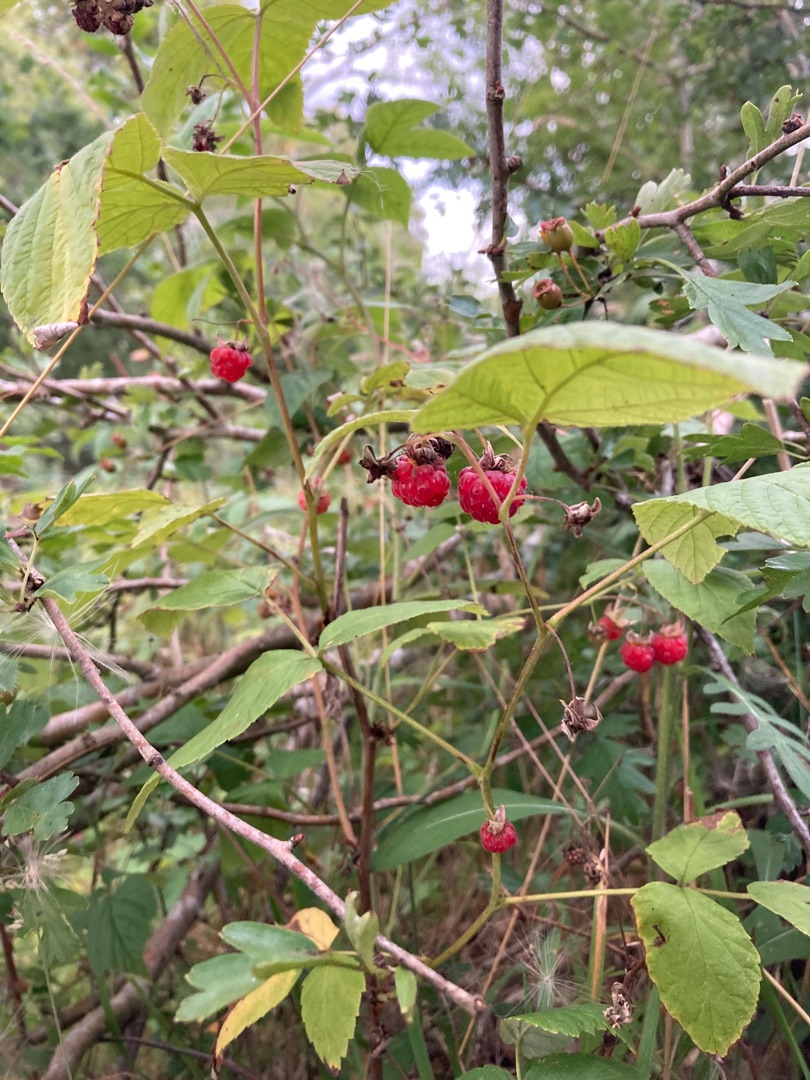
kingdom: Plantae
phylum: Tracheophyta
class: Magnoliopsida
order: Rosales
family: Rosaceae
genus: Rubus
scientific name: Rubus idaeus
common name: Hindbær
